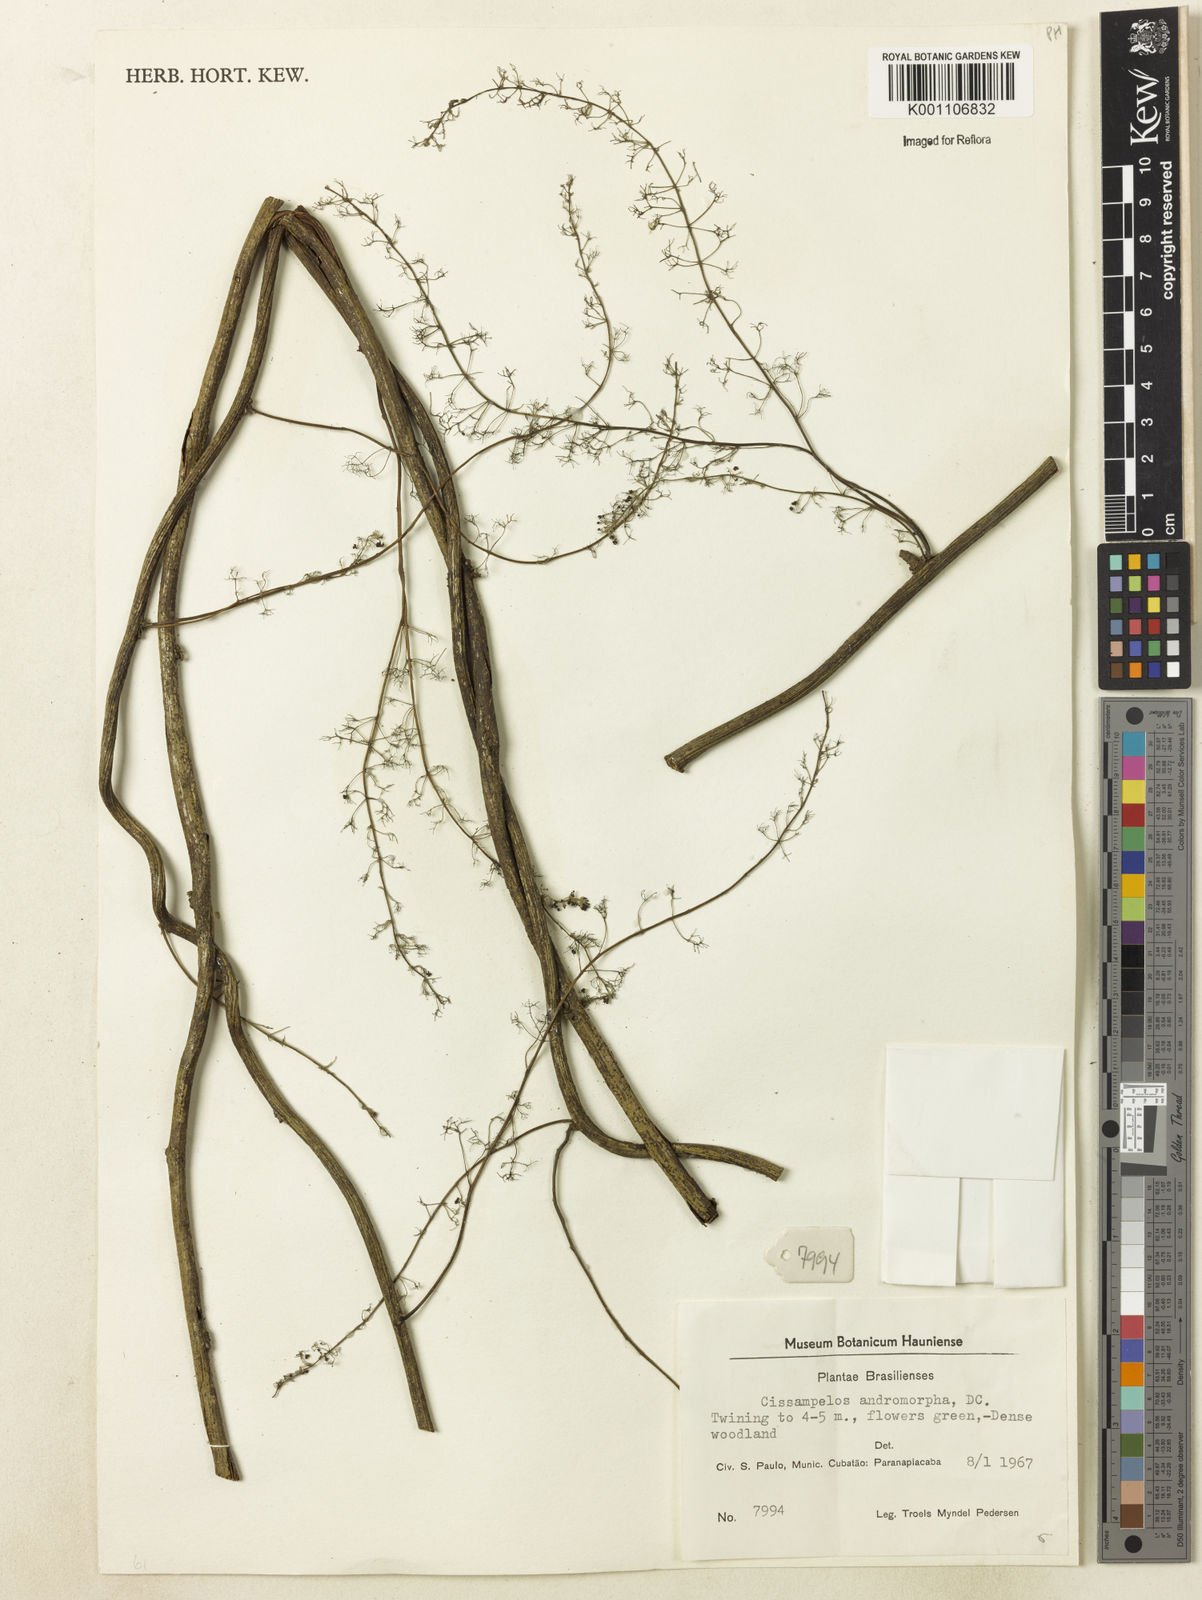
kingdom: Plantae
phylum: Tracheophyta
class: Magnoliopsida
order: Ranunculales
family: Menispermaceae
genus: Cissampelos
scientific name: Cissampelos andromorpha
